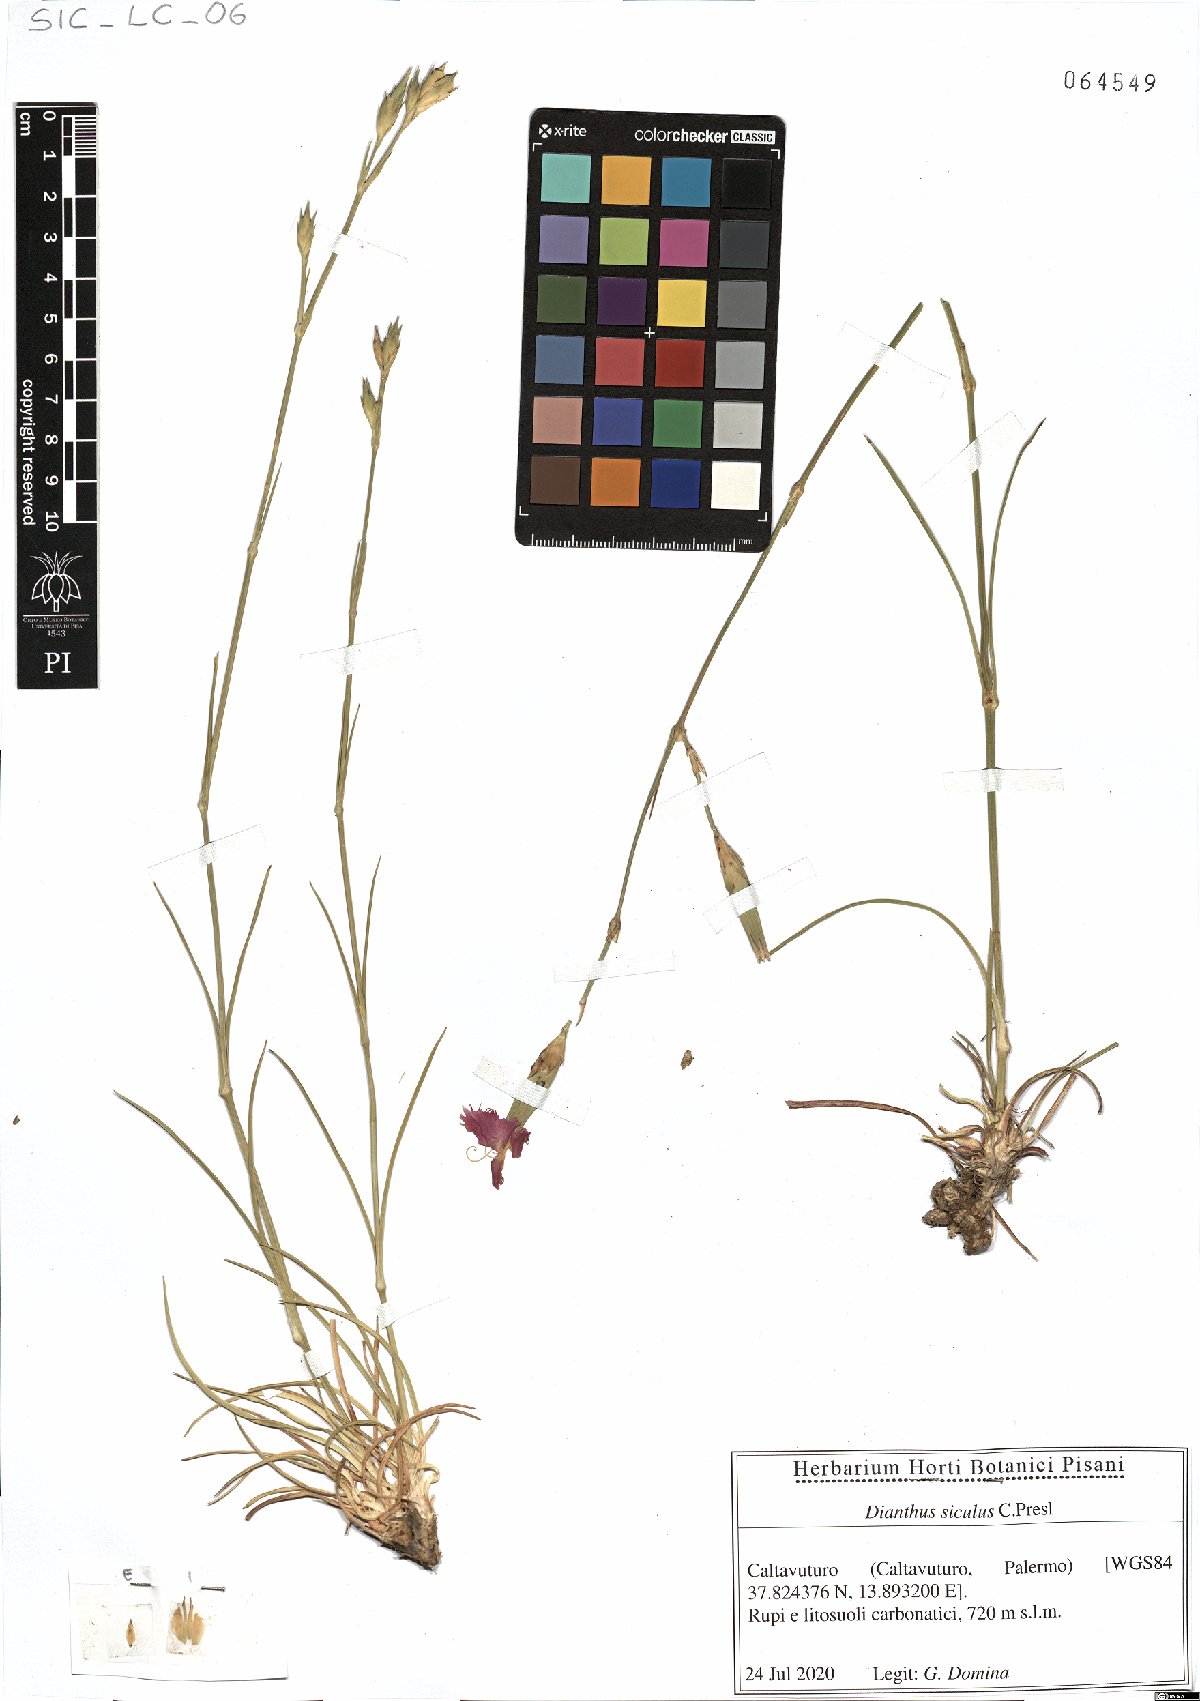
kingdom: Plantae
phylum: Tracheophyta
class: Magnoliopsida
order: Caryophyllales
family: Caryophyllaceae
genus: Dianthus
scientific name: Dianthus siculus
